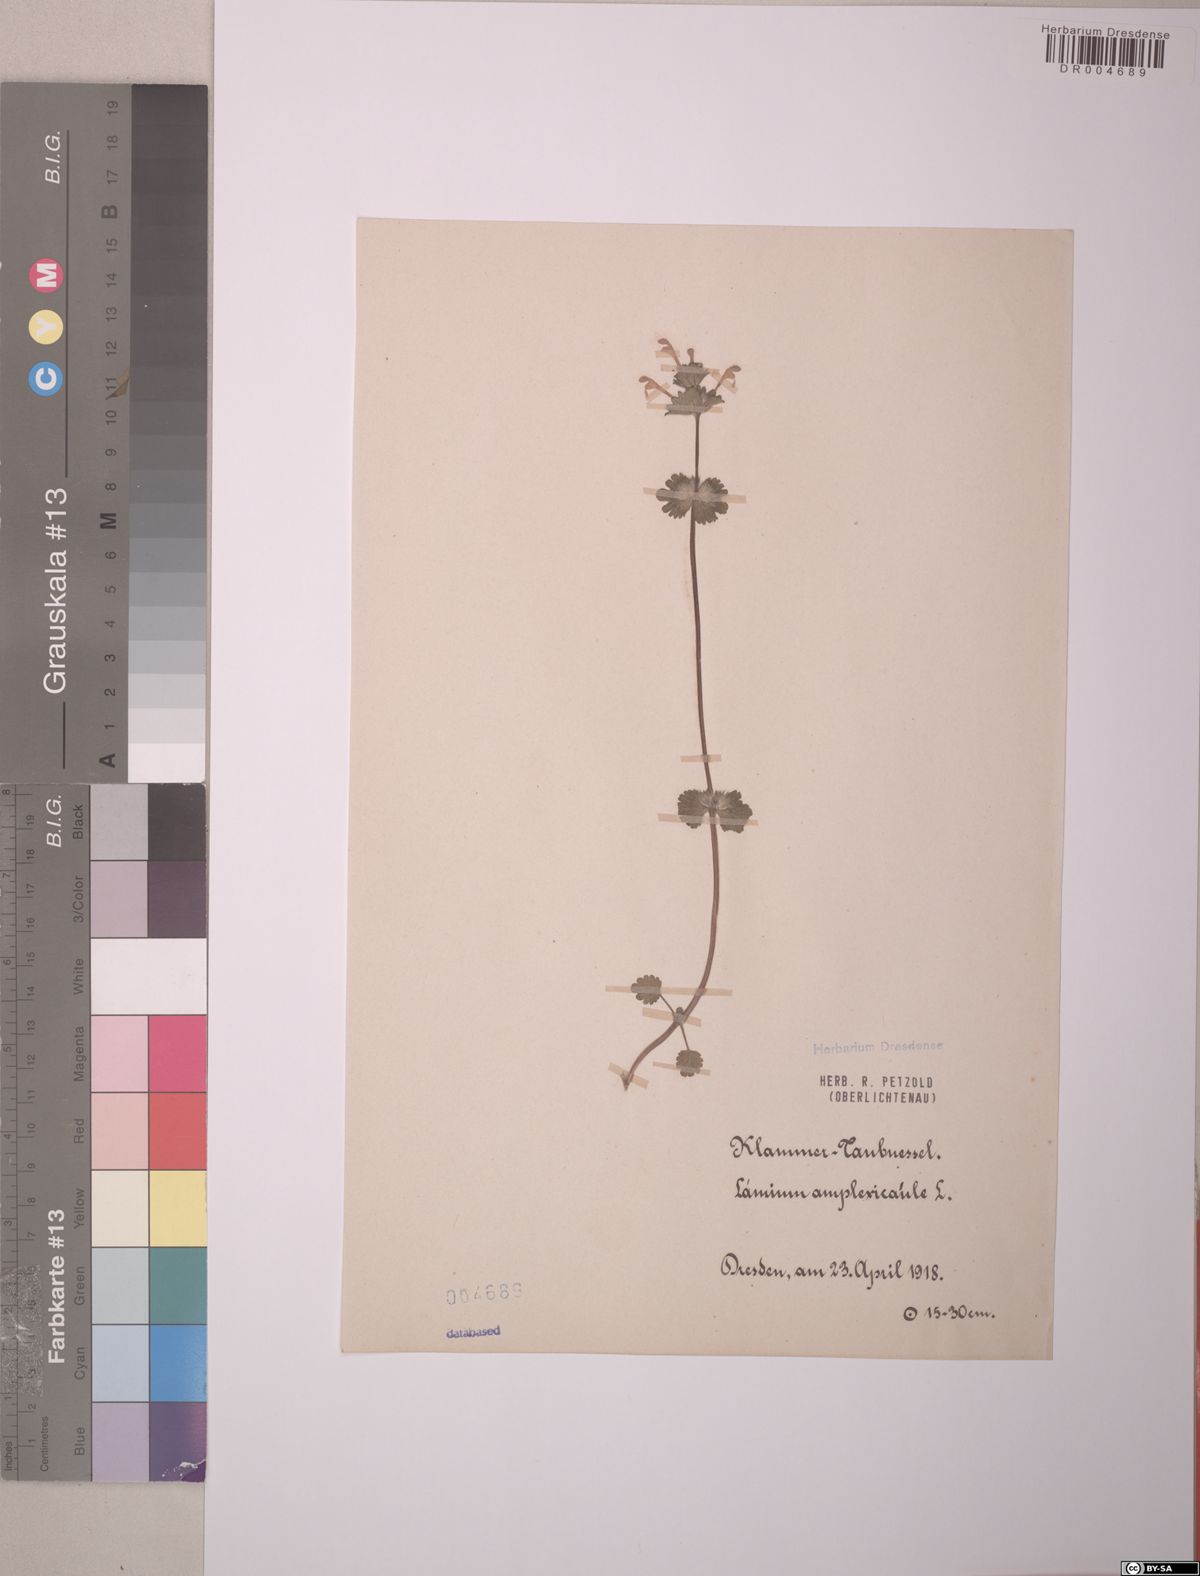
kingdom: Plantae
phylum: Tracheophyta
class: Magnoliopsida
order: Lamiales
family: Lamiaceae
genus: Lamium
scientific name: Lamium amplexicaule
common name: Henbit dead-nettle
